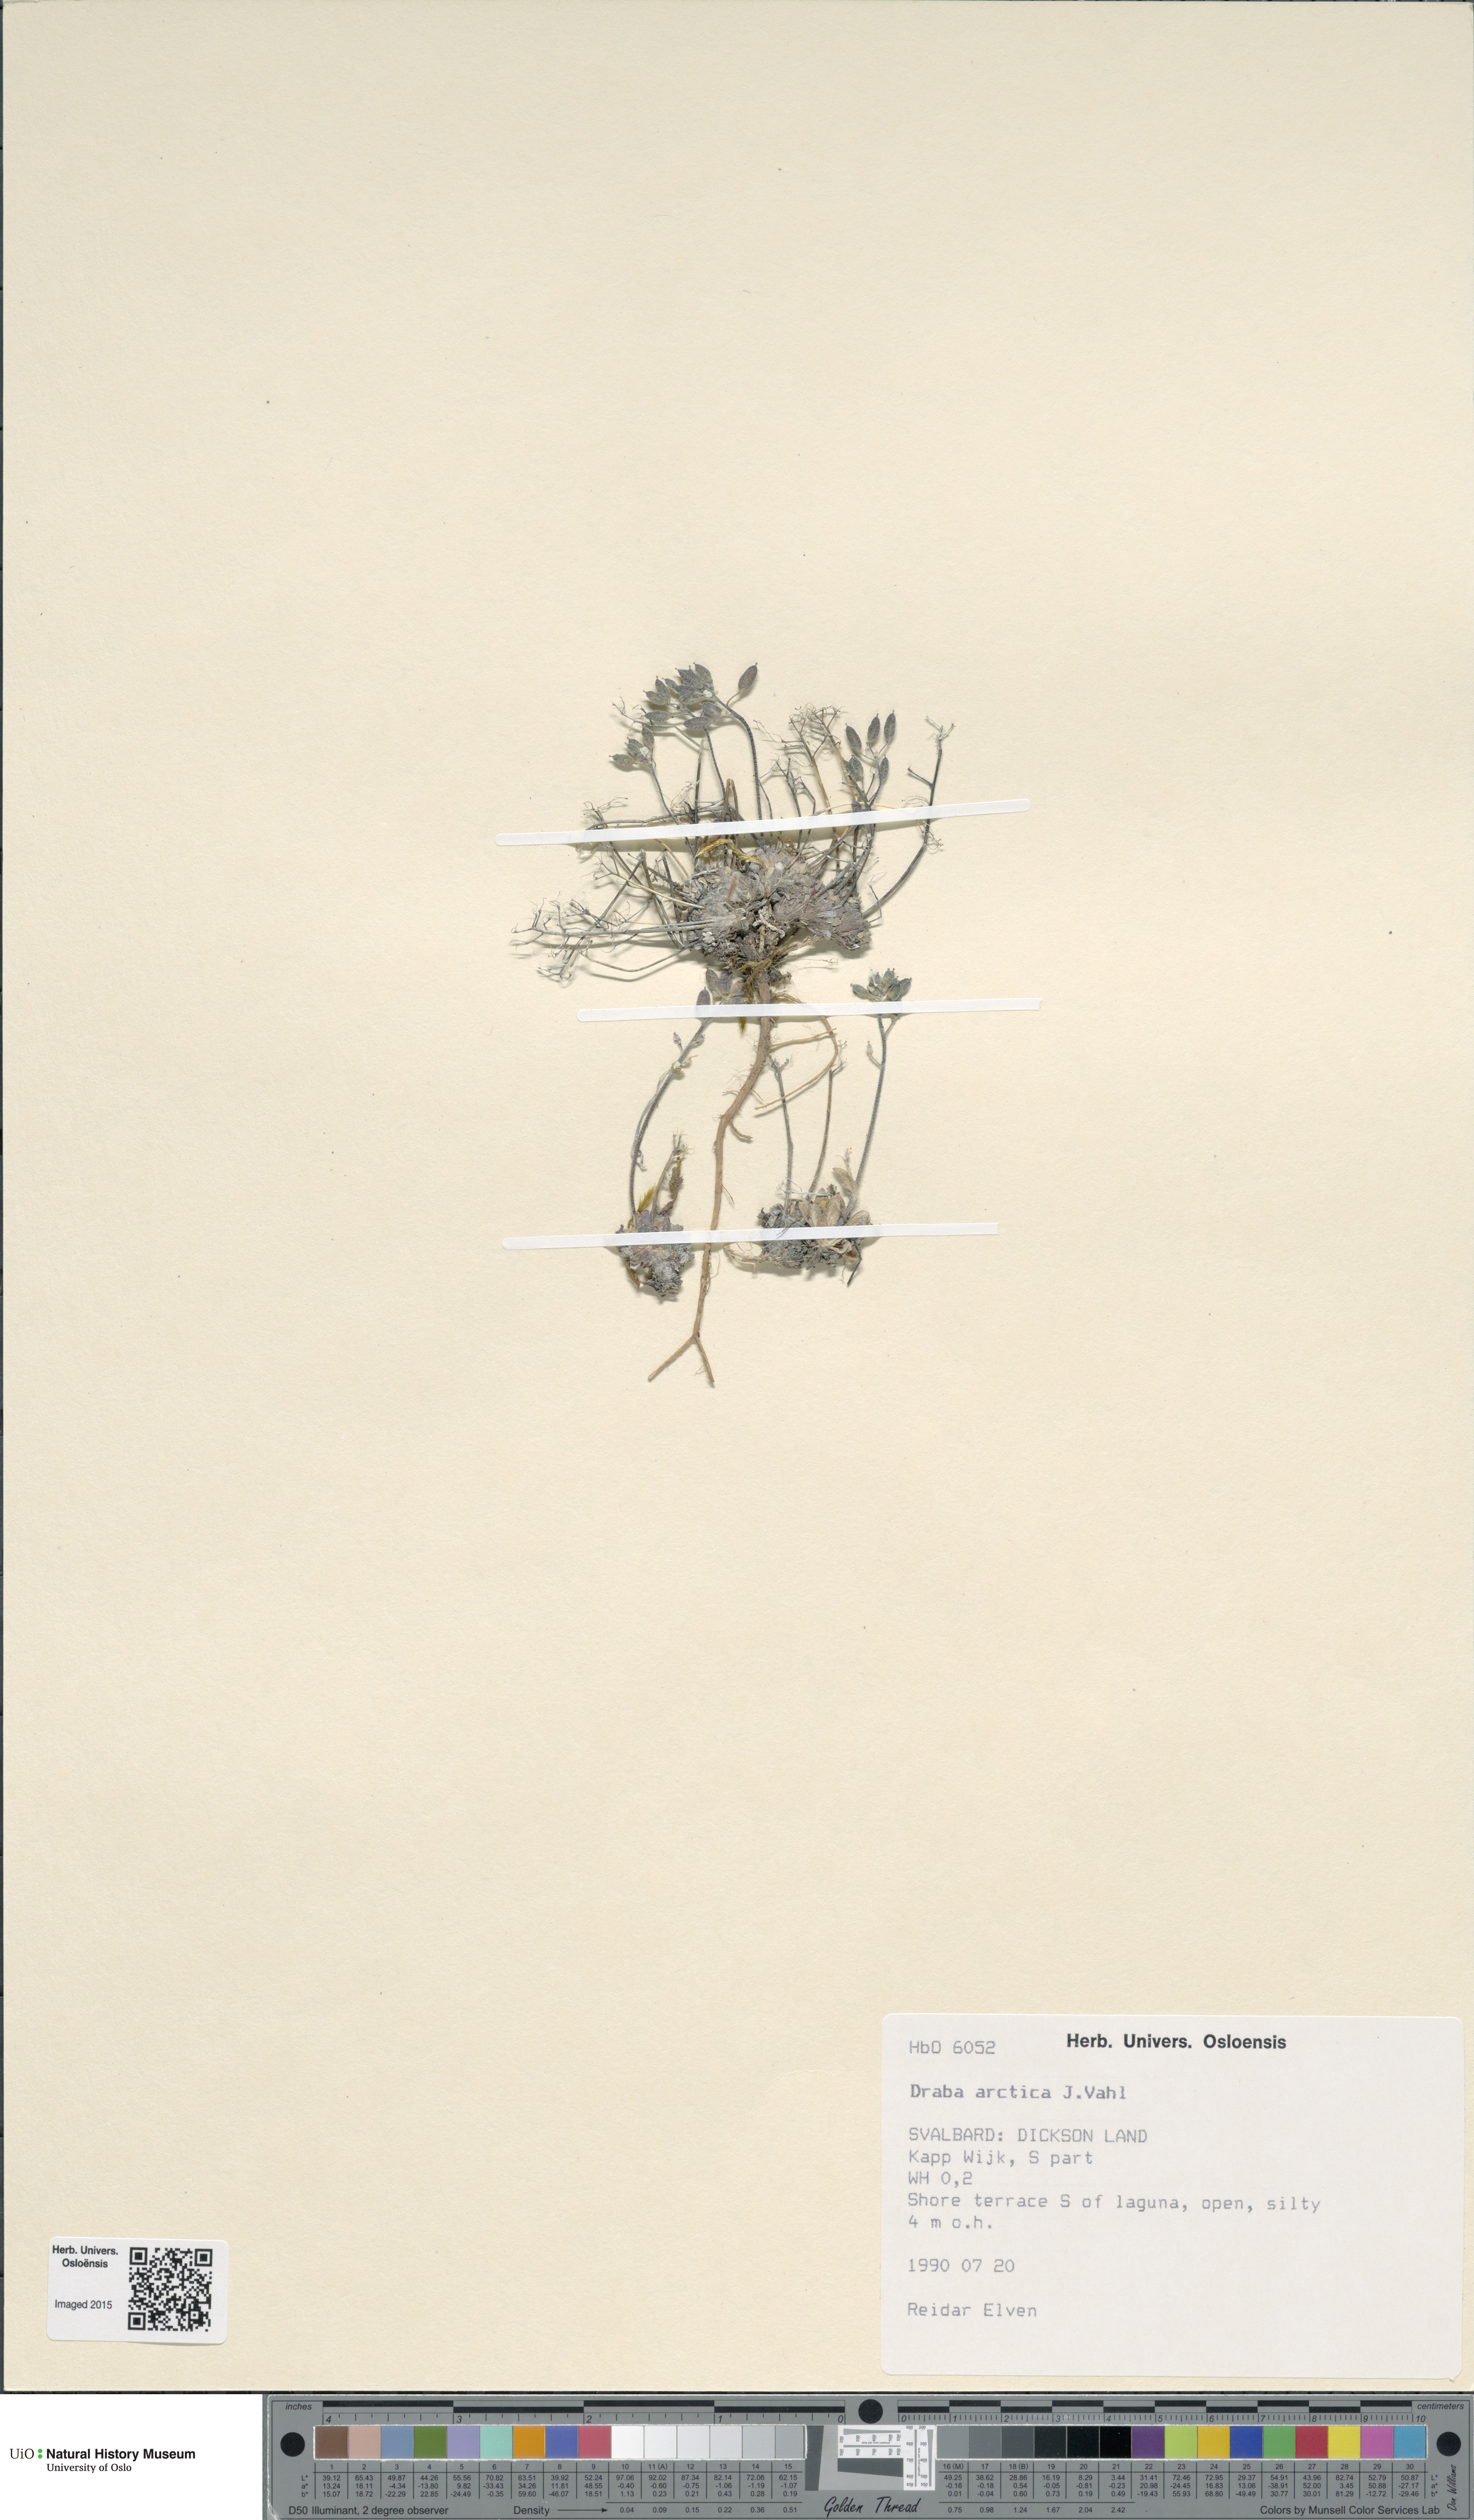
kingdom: Plantae
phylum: Tracheophyta
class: Magnoliopsida
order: Brassicales
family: Brassicaceae
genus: Draba
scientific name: Draba arctica
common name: Arctic draba
